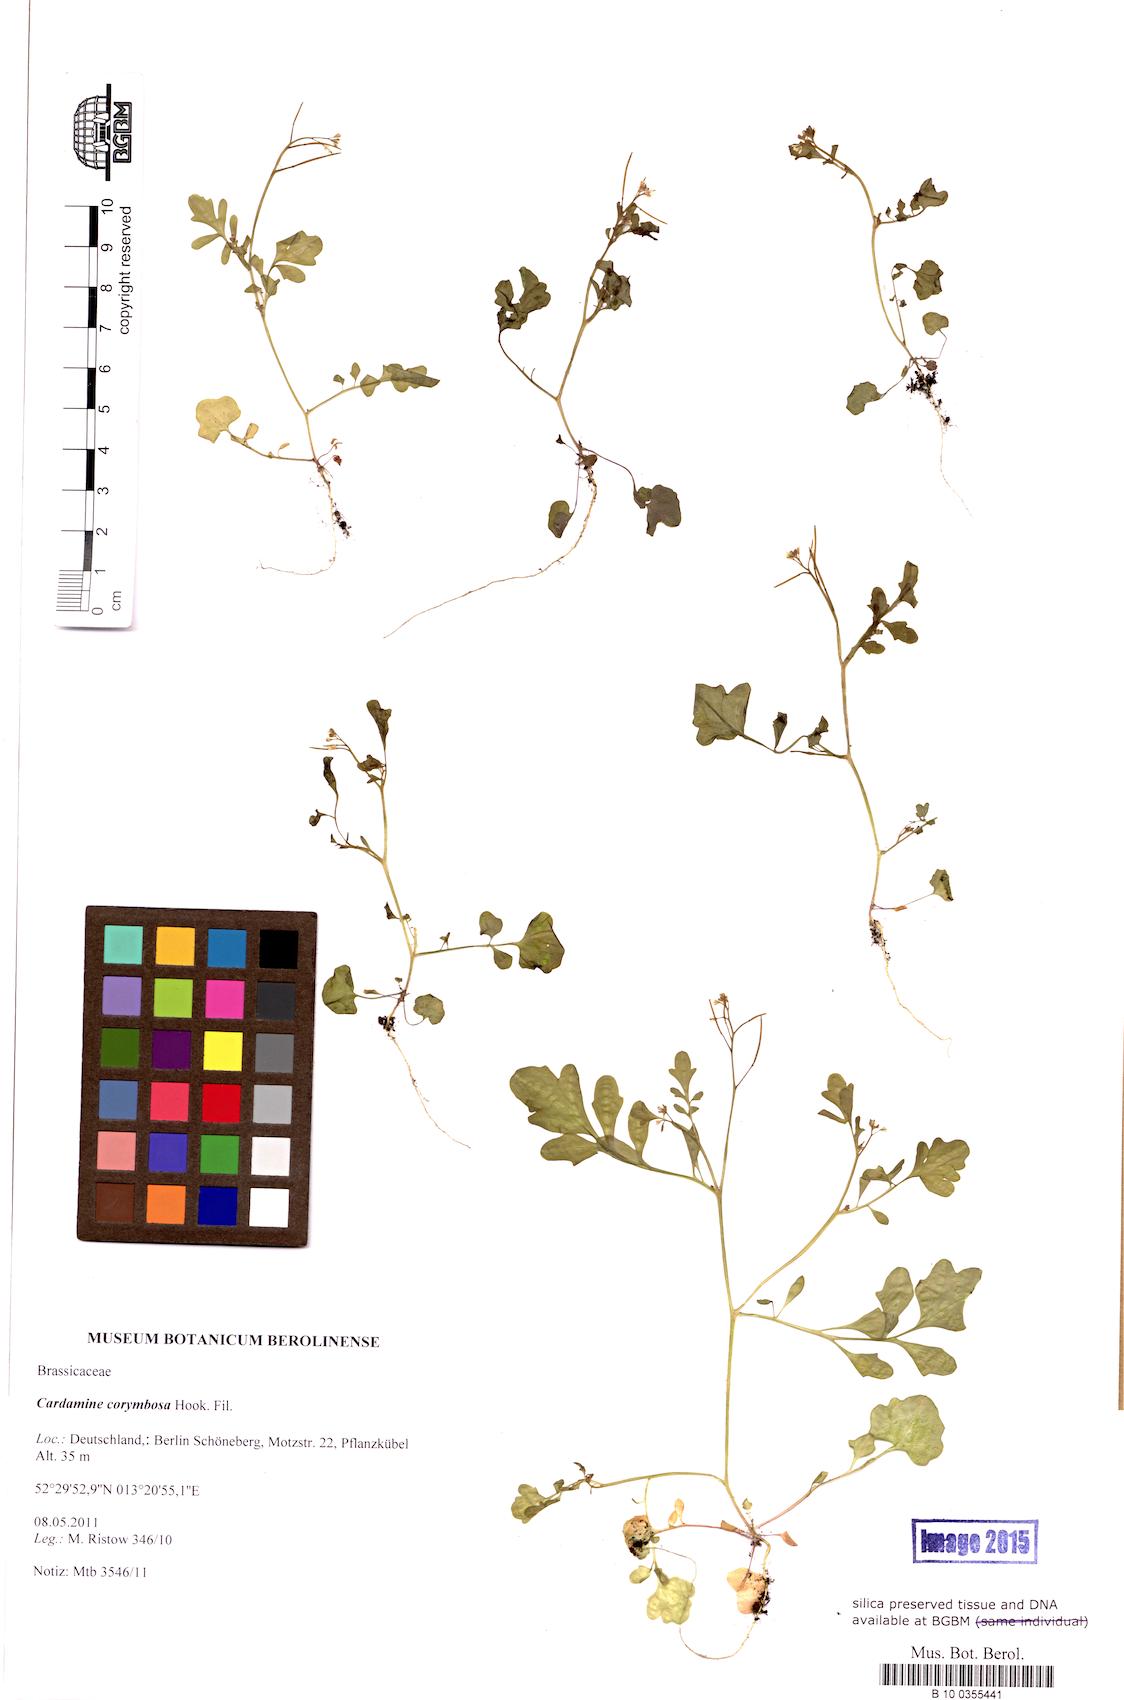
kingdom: Plantae
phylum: Tracheophyta
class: Magnoliopsida
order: Brassicales
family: Brassicaceae
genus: Cardamine
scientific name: Cardamine occulta
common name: Asian wavy bittercress
